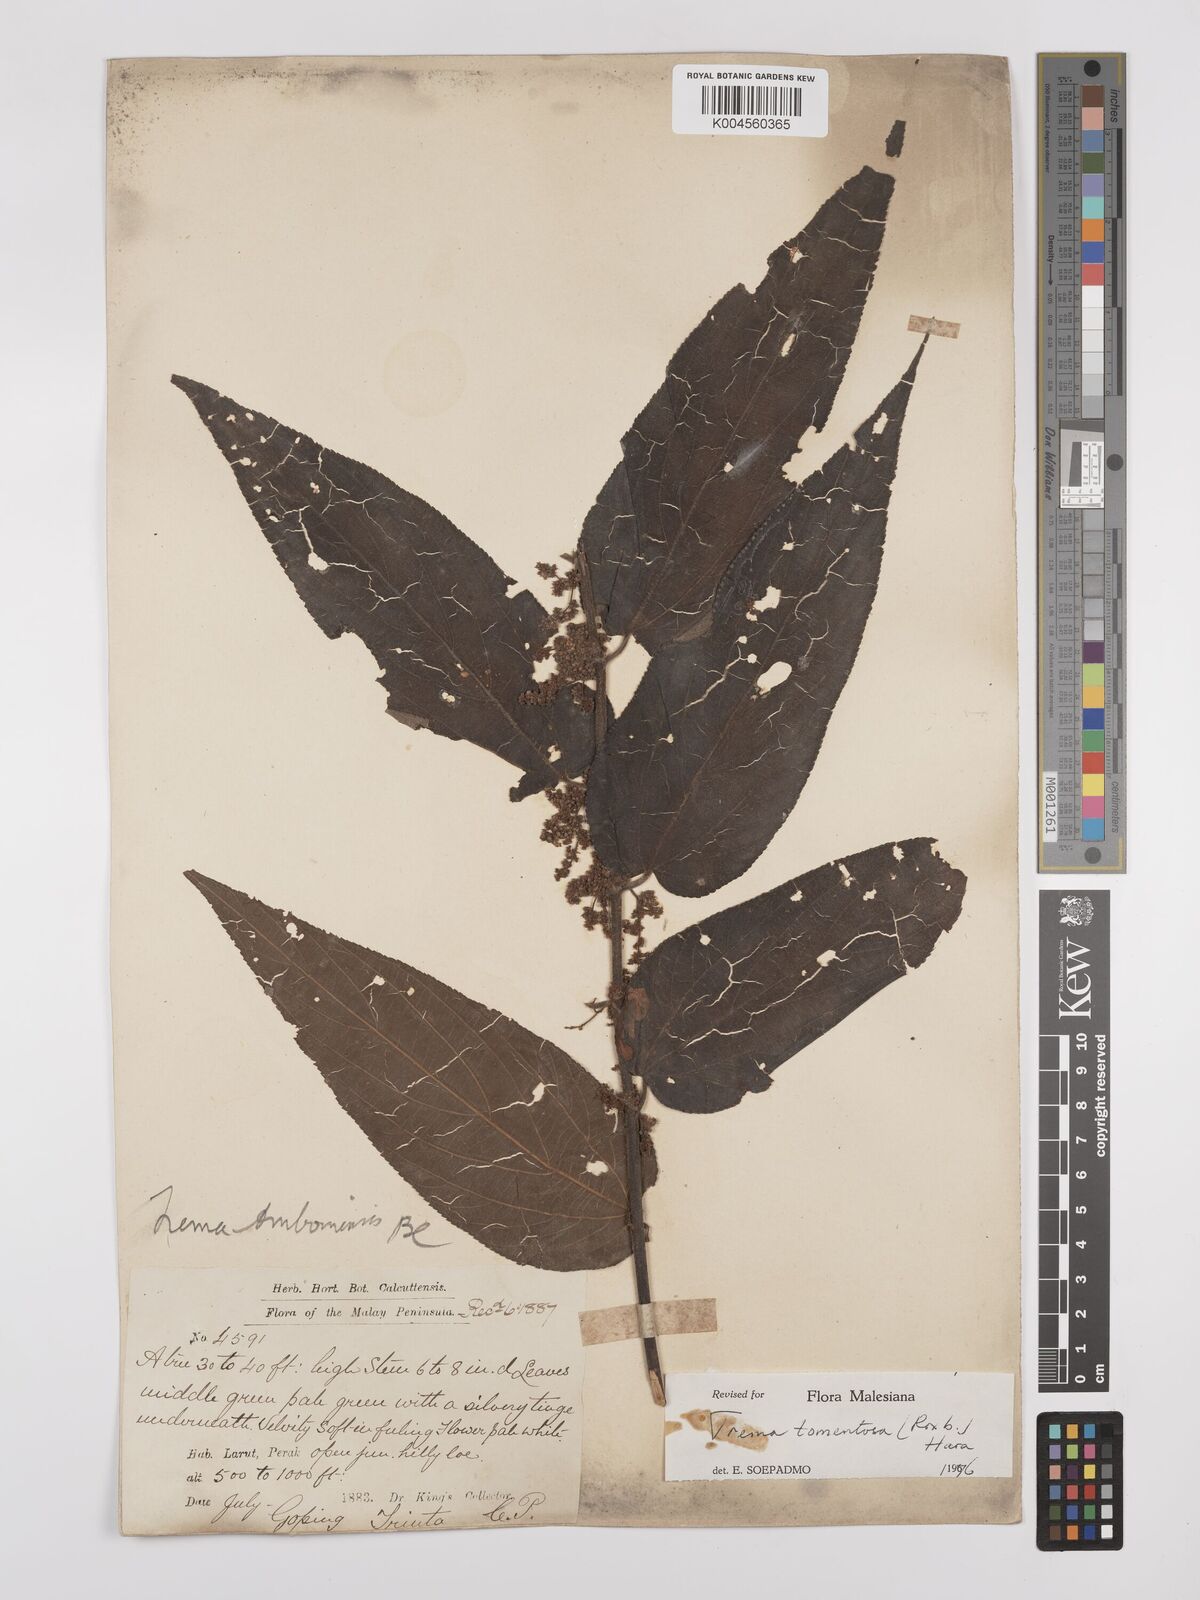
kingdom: Plantae
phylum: Tracheophyta
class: Magnoliopsida
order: Rosales
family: Cannabaceae
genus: Trema
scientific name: Trema tomentosum
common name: Peach-leaf-poisonbush
